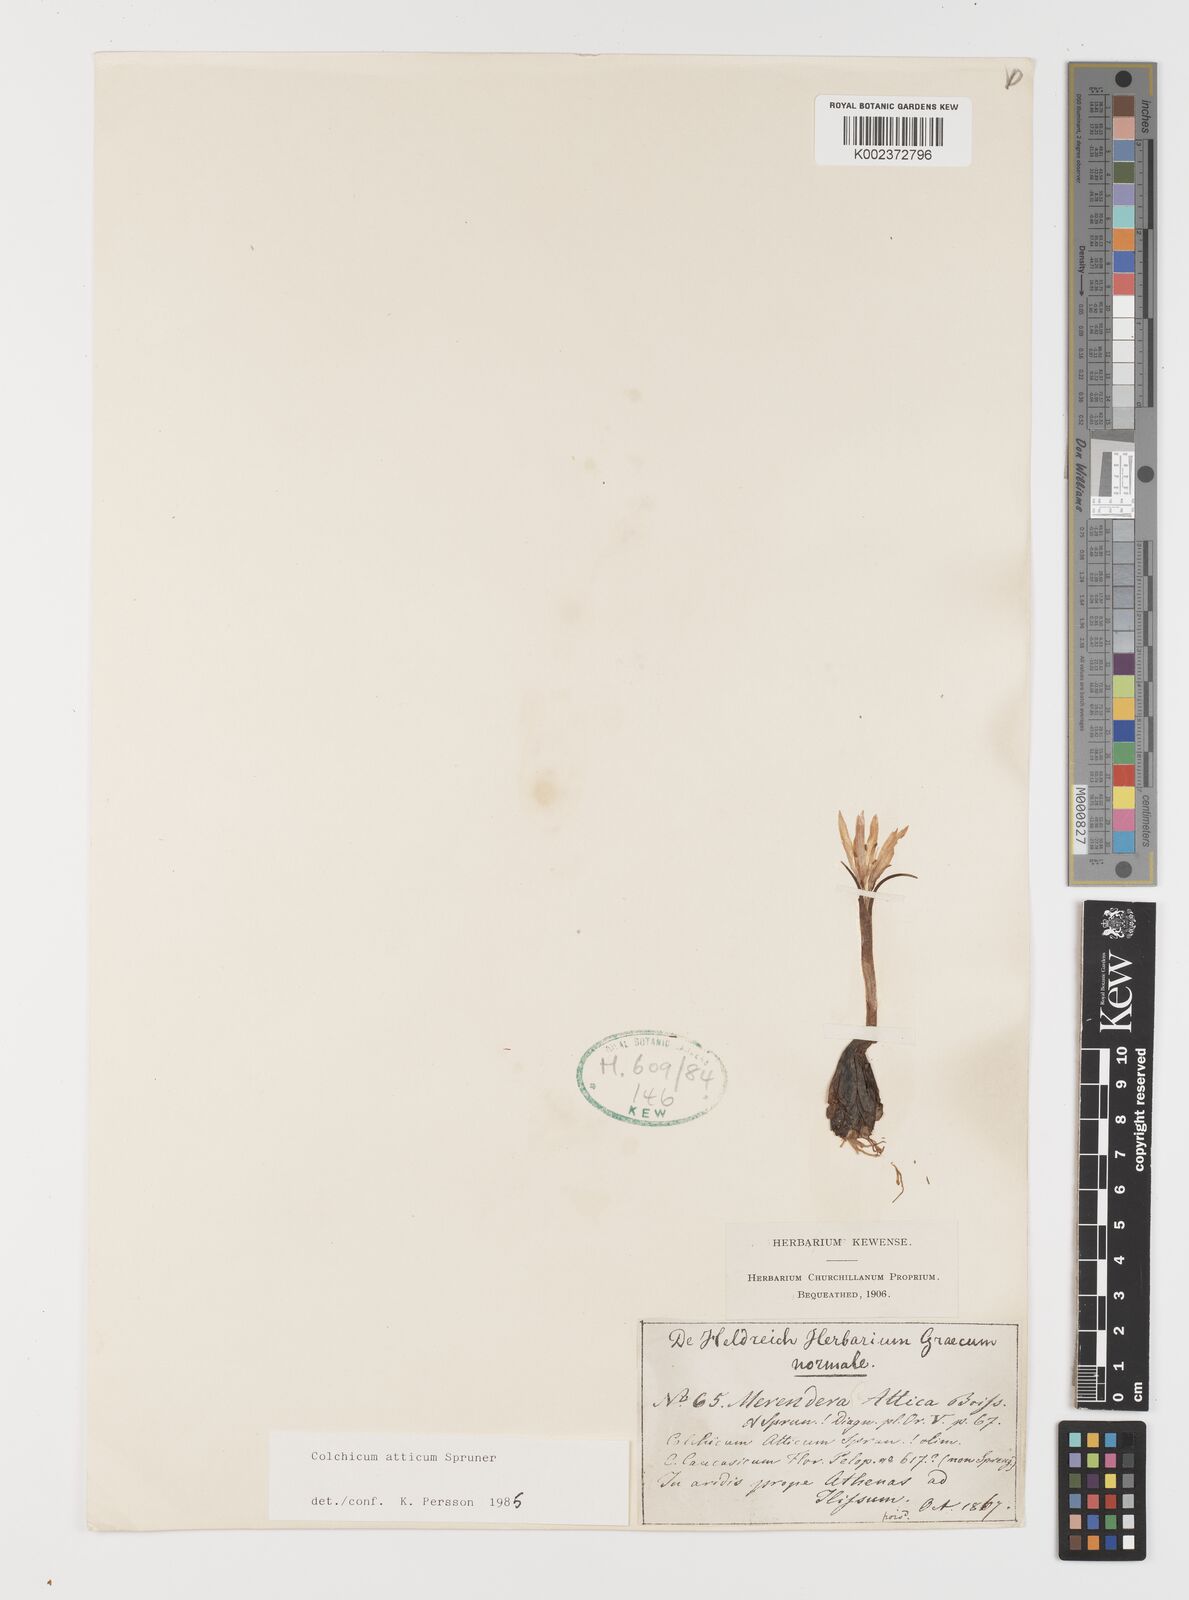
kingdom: Plantae
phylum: Tracheophyta
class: Liliopsida
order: Liliales
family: Colchicaceae
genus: Colchicum
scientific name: Colchicum atticum
